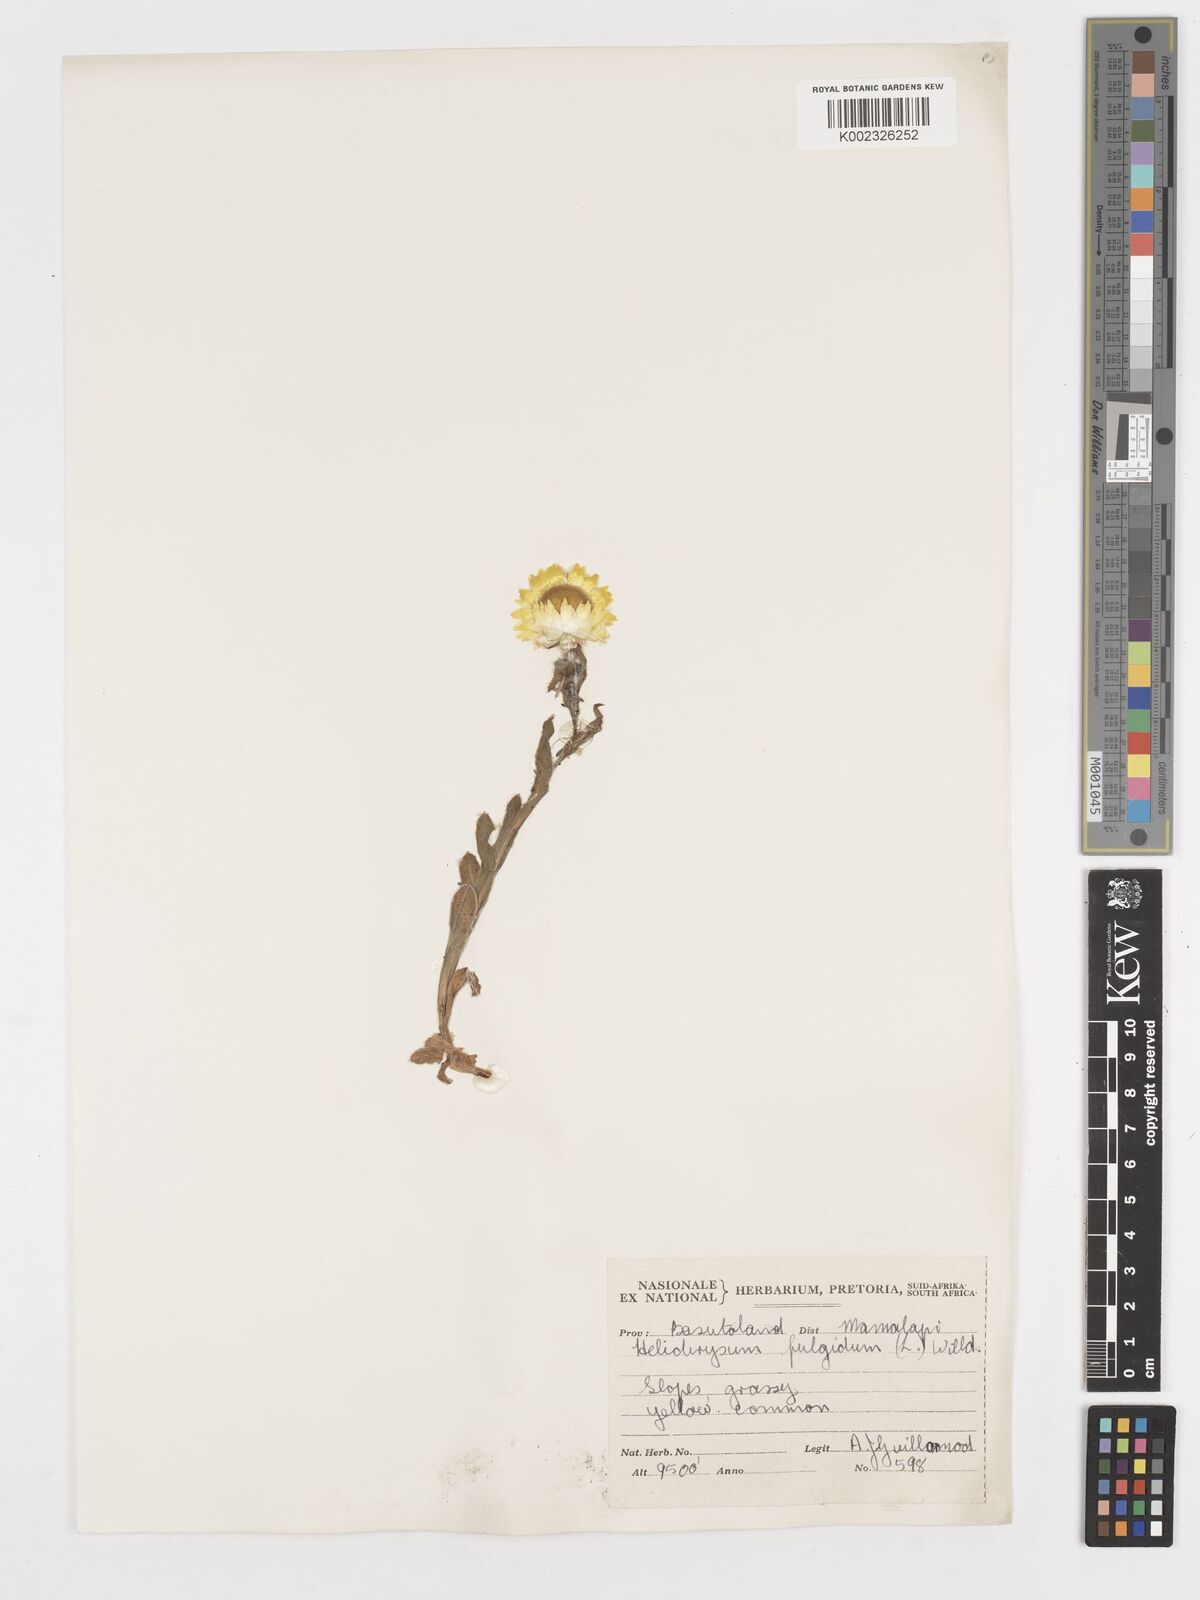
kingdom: Plantae
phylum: Tracheophyta
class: Magnoliopsida
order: Asterales
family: Asteraceae
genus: Helichrysum
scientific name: Helichrysum aureum
